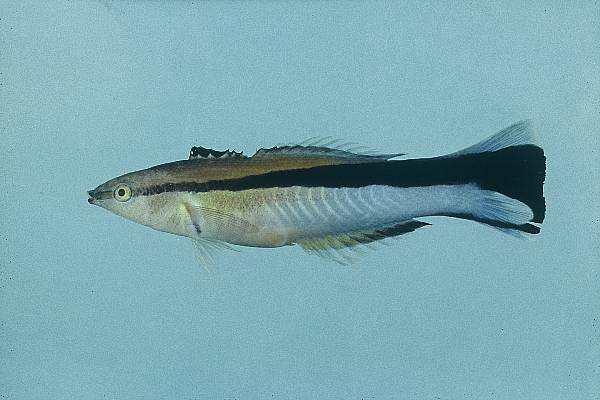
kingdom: Animalia
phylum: Chordata
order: Perciformes
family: Labridae
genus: Labroides
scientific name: Labroides dimidiatus
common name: Blue diesel wrasse
